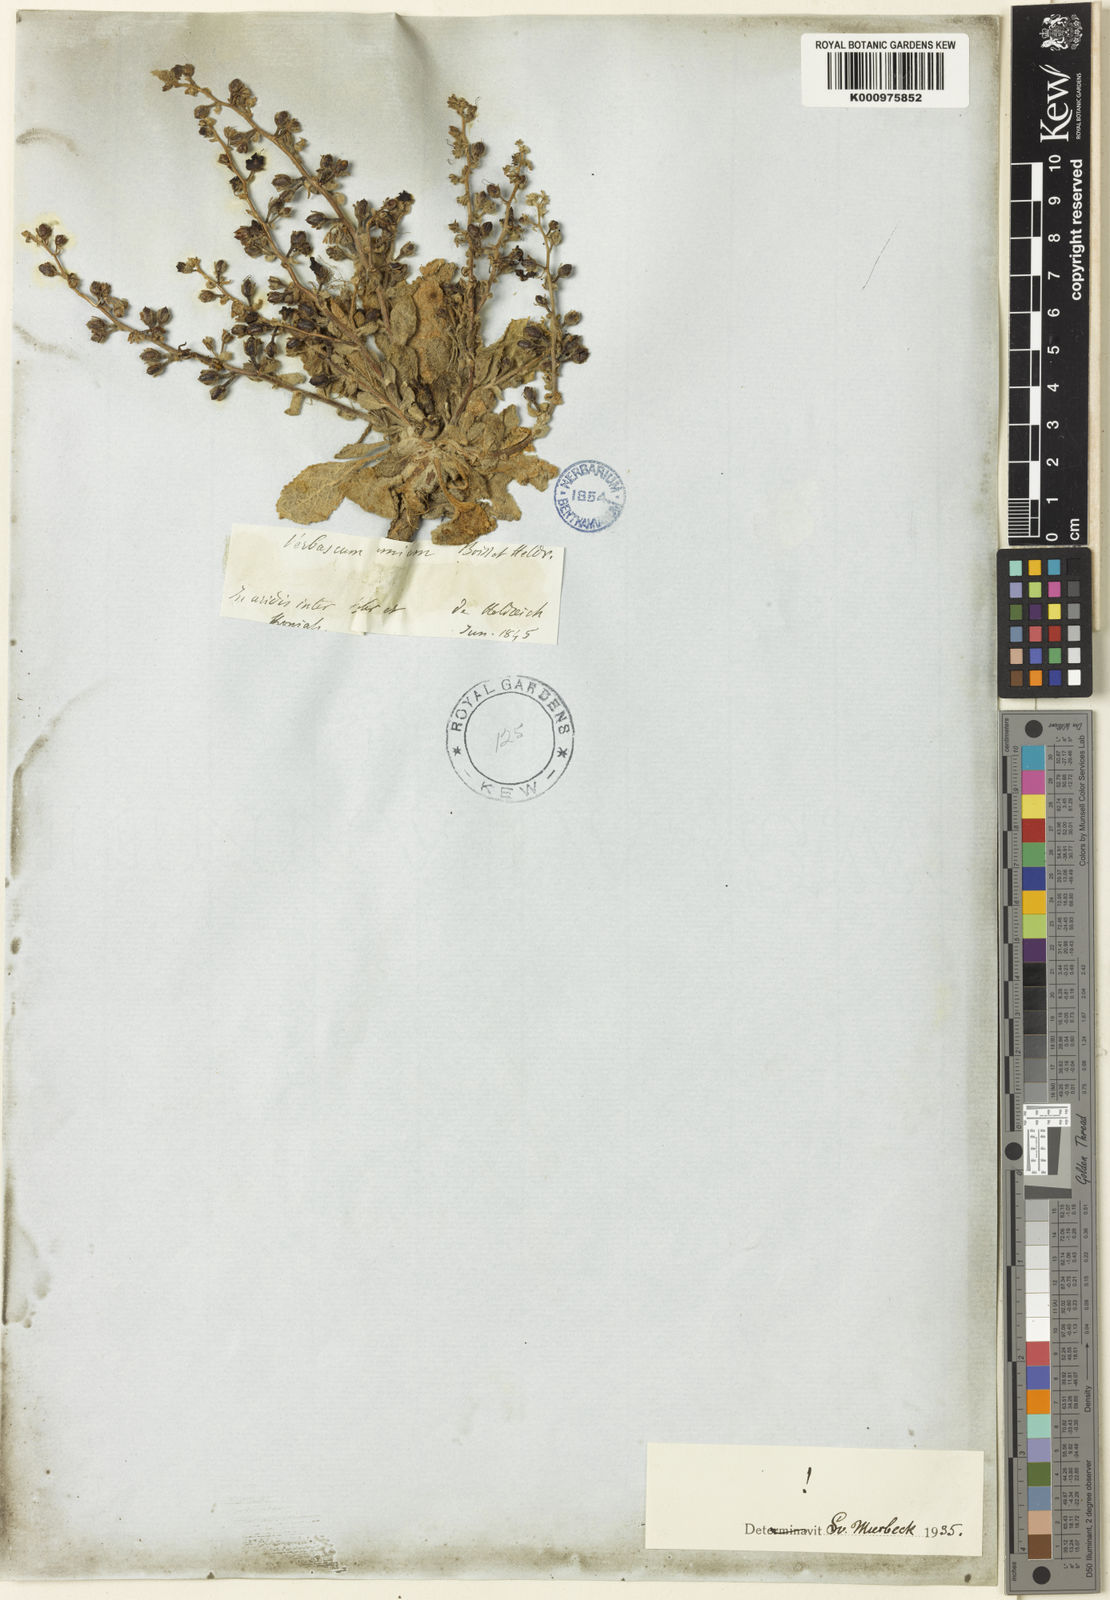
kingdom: Plantae
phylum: Tracheophyta
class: Magnoliopsida
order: Lamiales
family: Scrophulariaceae
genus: Verbascum
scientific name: Verbascum pumilum
